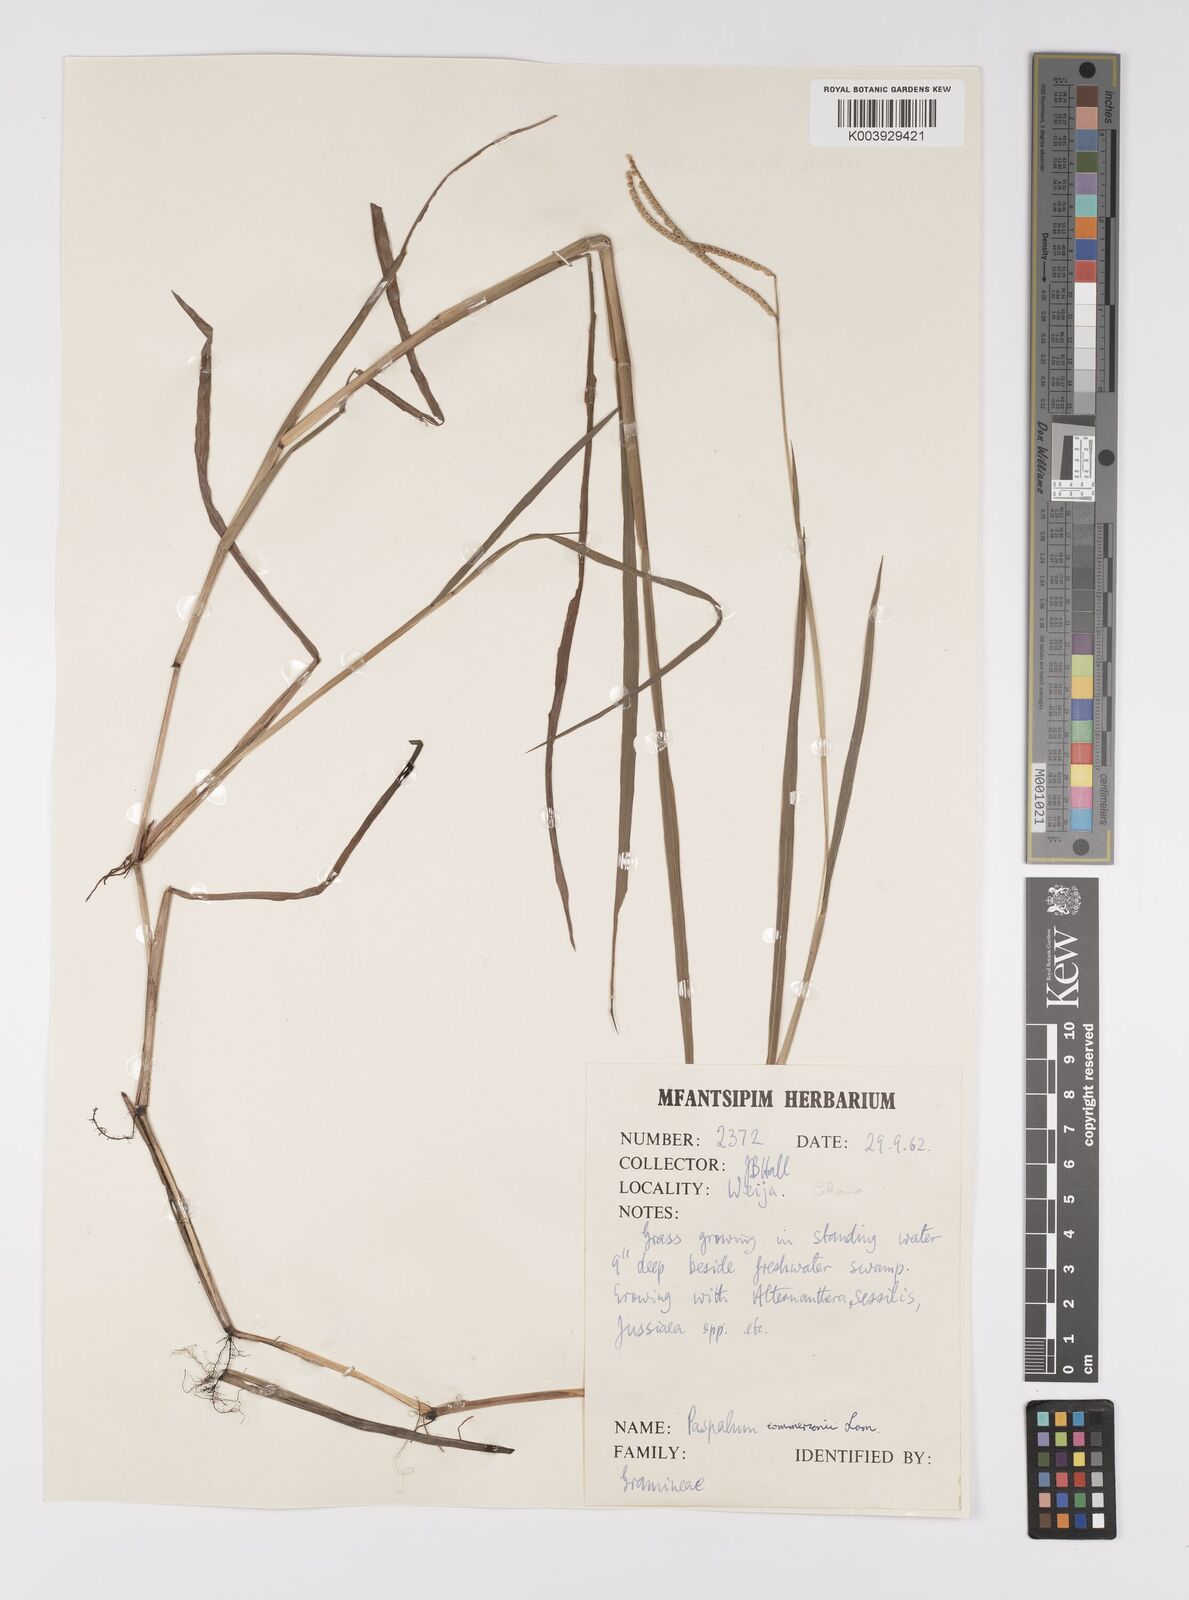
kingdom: Plantae
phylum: Tracheophyta
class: Liliopsida
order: Poales
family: Poaceae
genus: Paspalum
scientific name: Paspalum scrobiculatum
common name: Kodo millet
